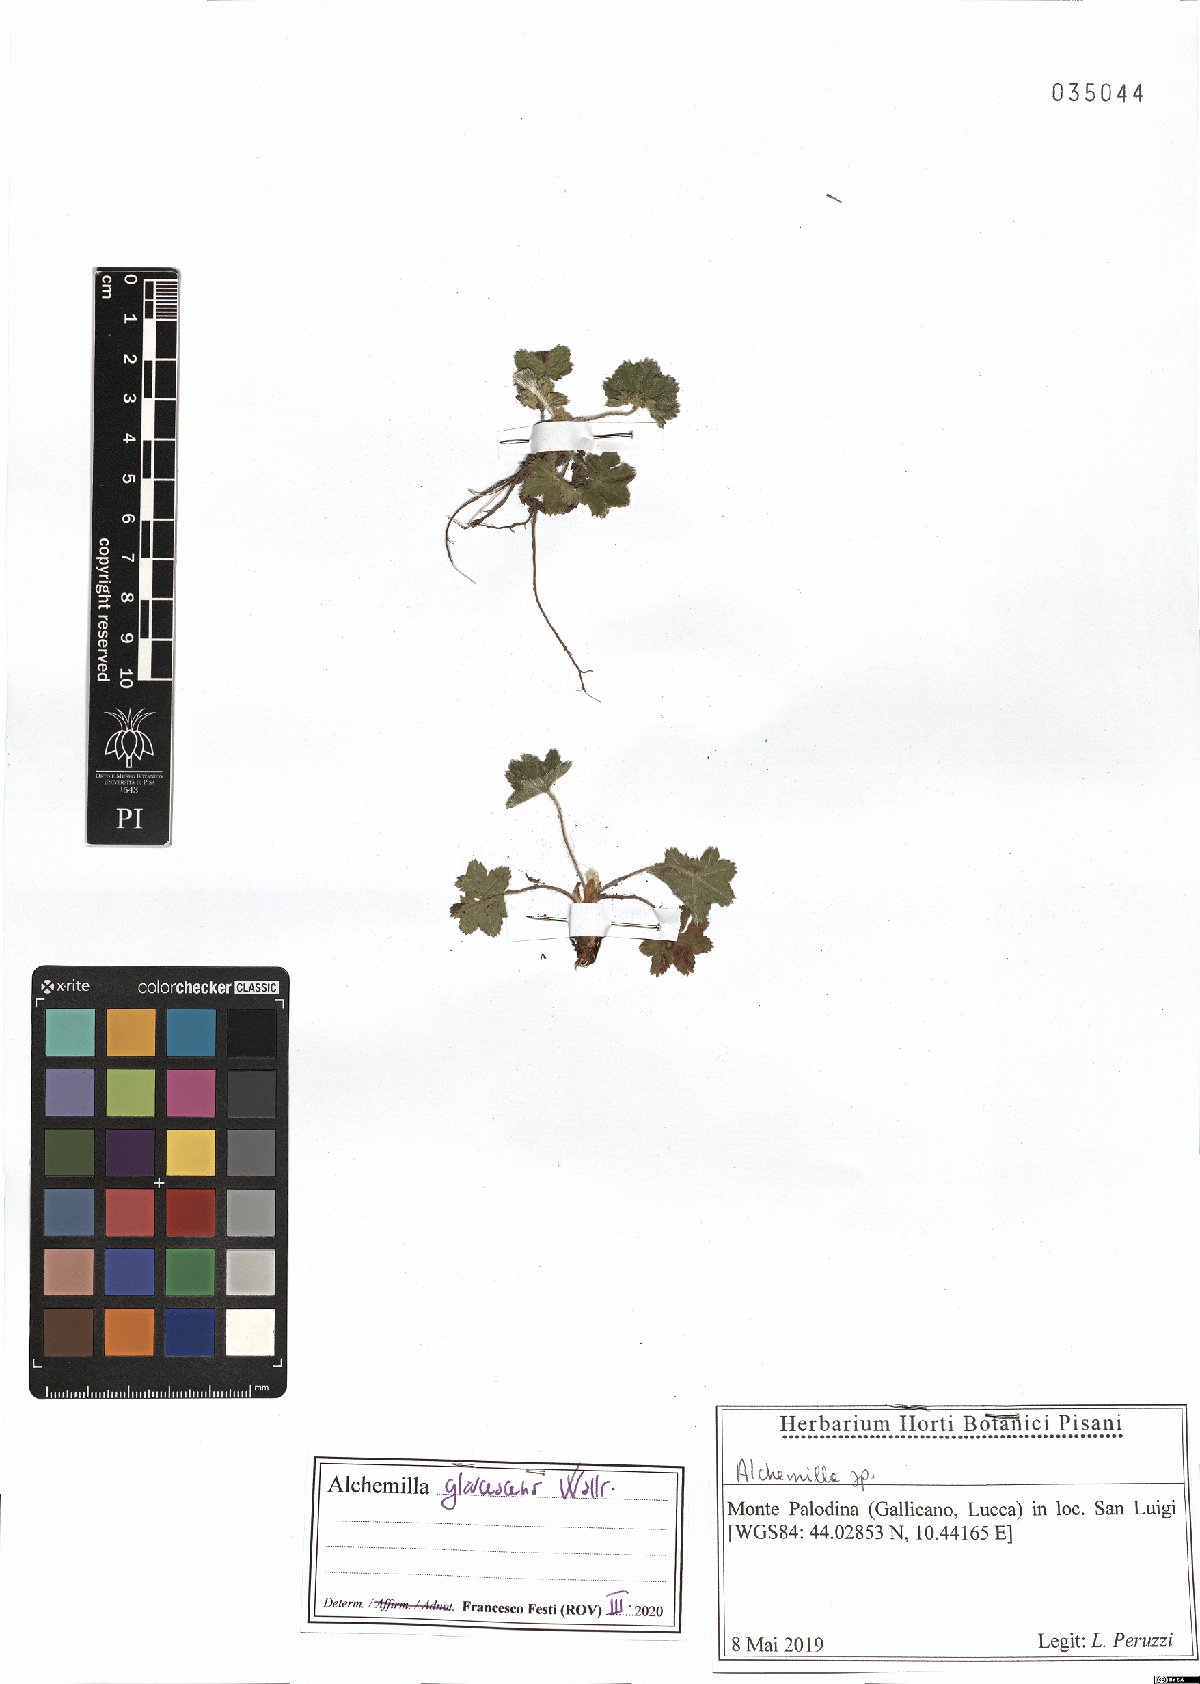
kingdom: Plantae
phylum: Tracheophyta
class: Magnoliopsida
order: Rosales
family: Rosaceae
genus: Alchemilla
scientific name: Alchemilla glaucescens
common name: Silky lady's mantle
